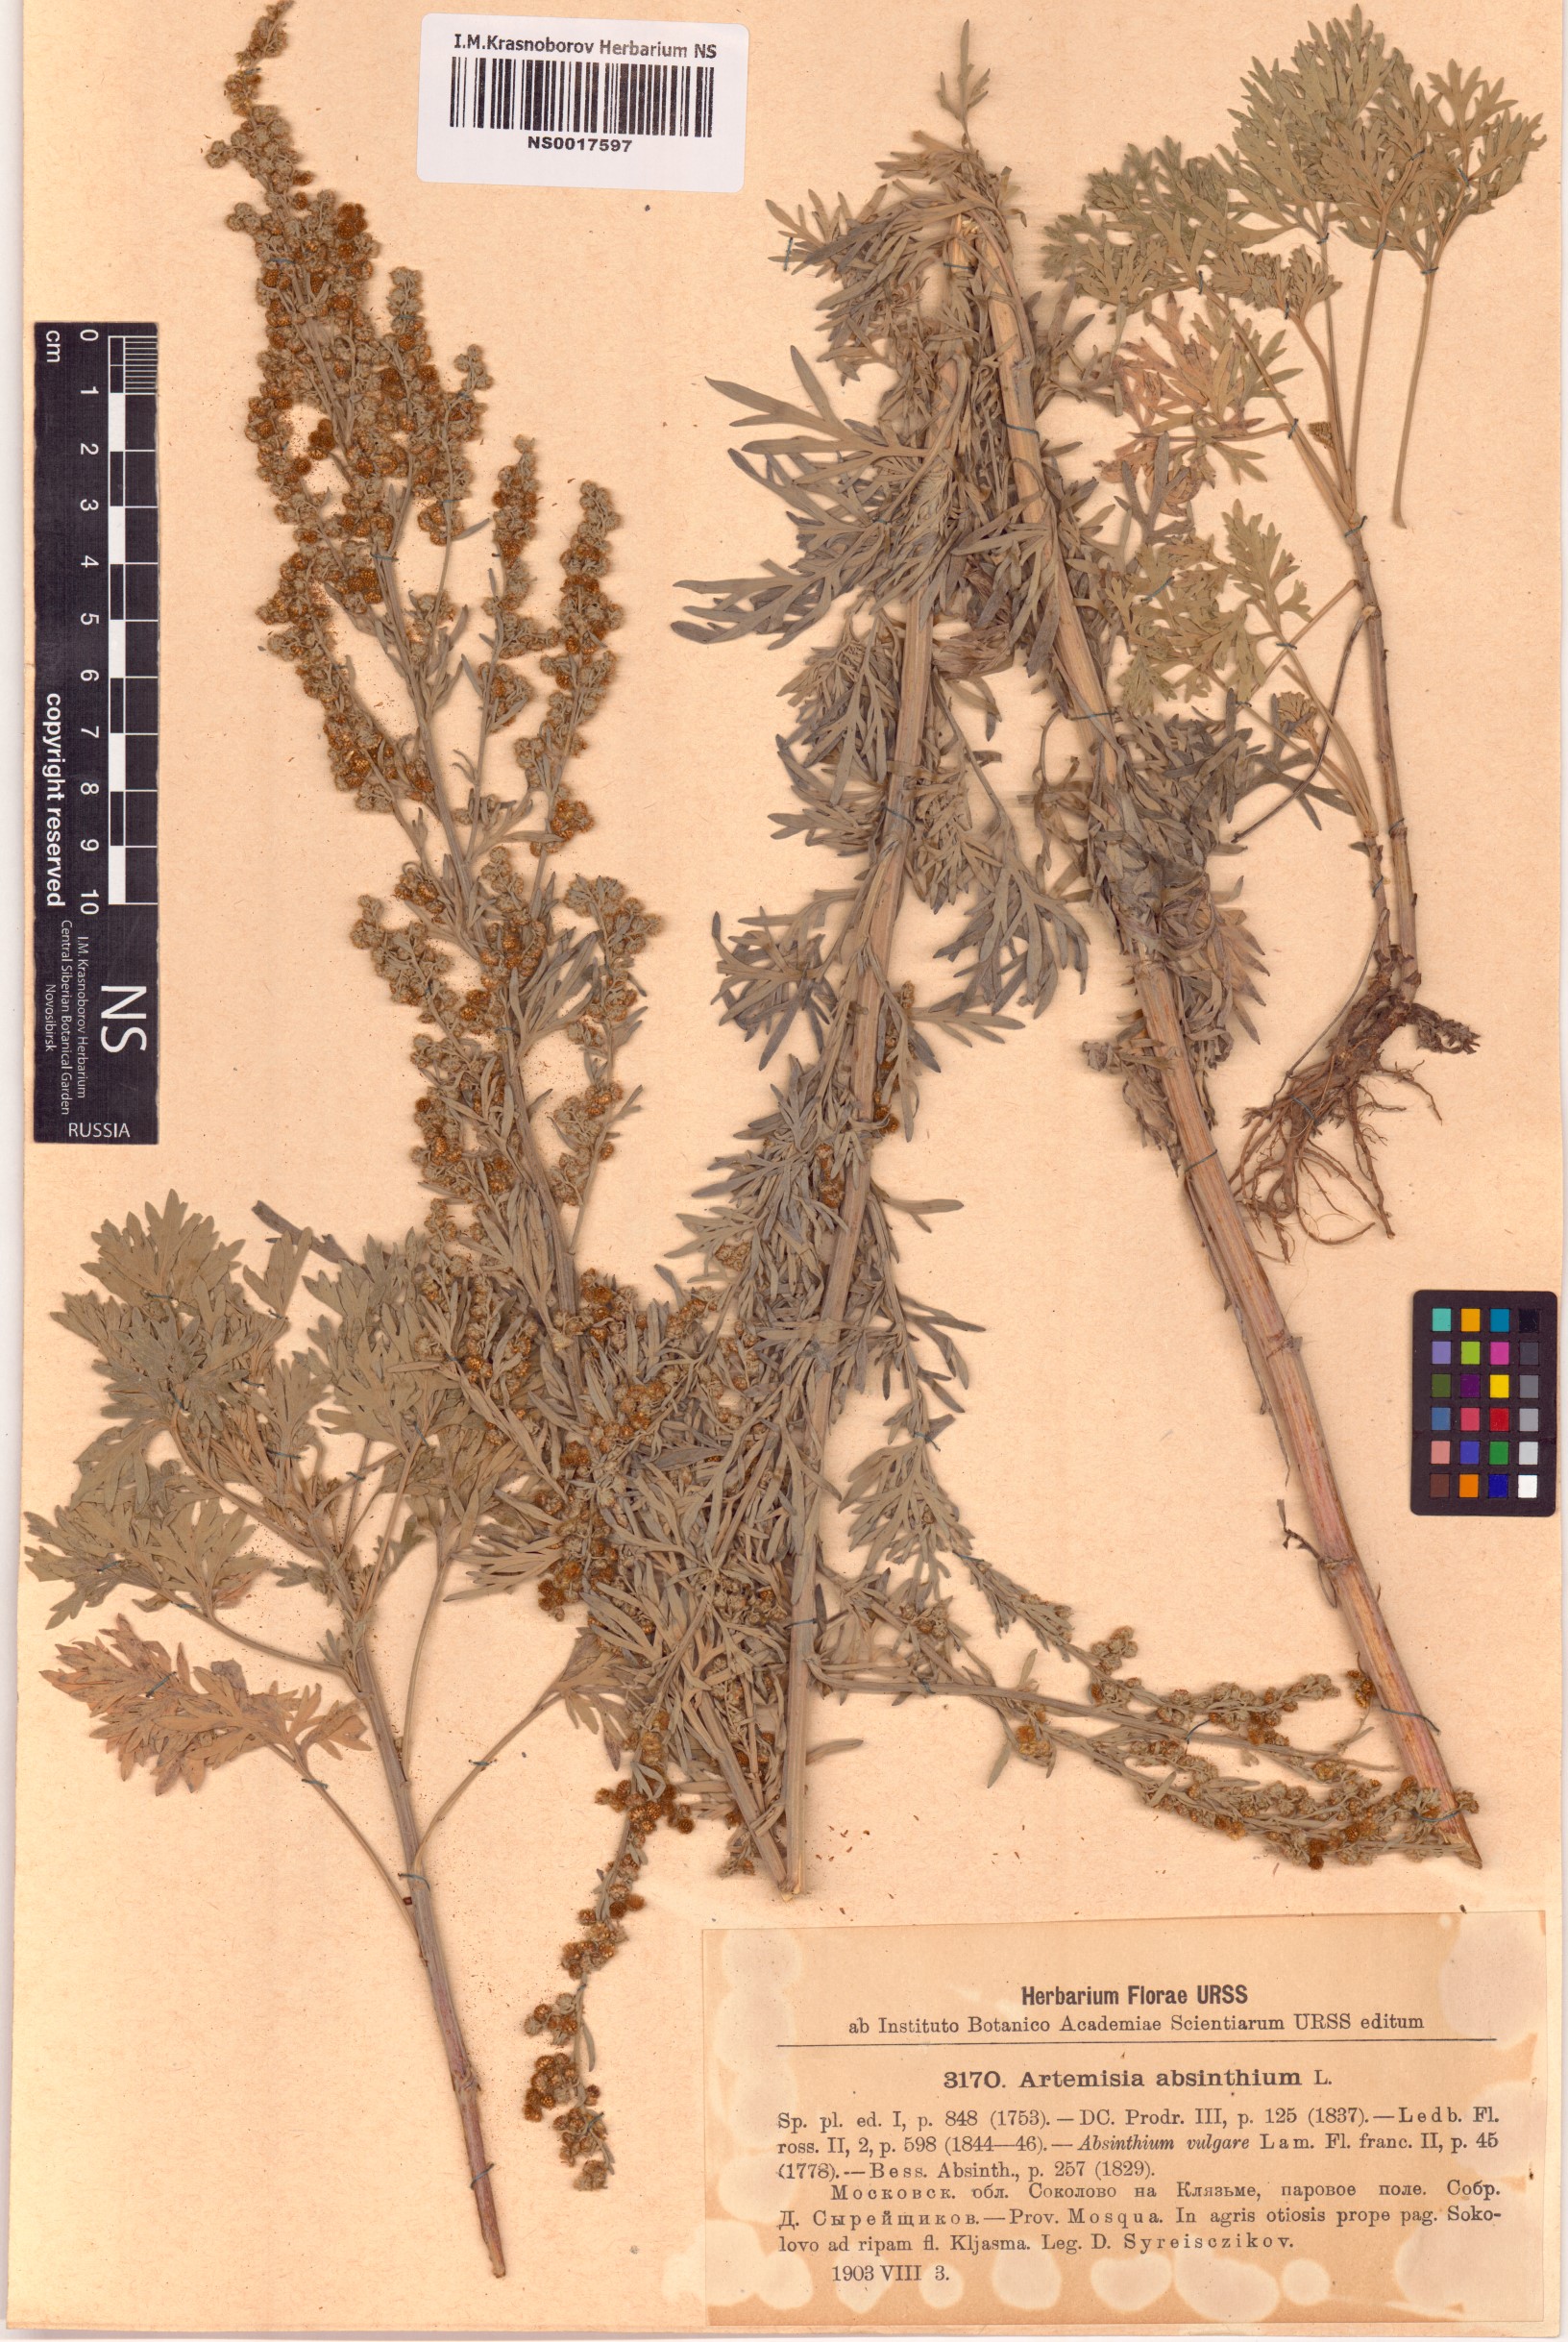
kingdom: Plantae
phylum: Tracheophyta
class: Magnoliopsida
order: Asterales
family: Asteraceae
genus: Artemisia
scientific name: Artemisia absinthium
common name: Wormwood
